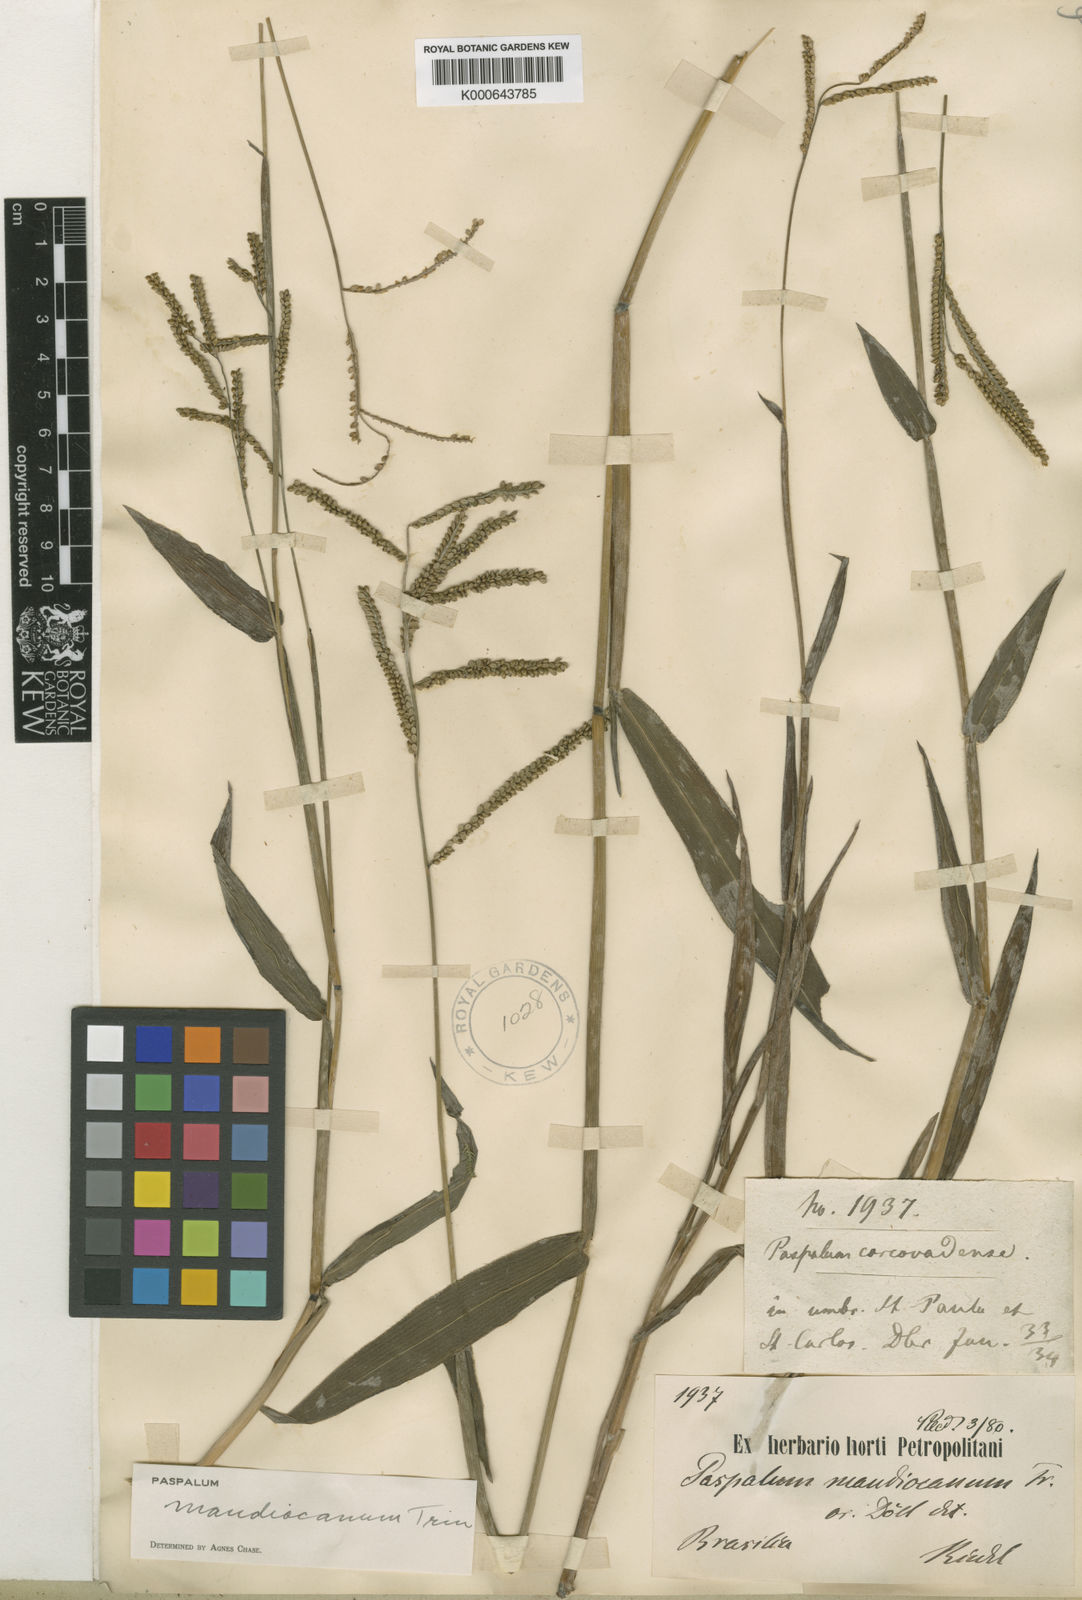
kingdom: Plantae
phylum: Tracheophyta
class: Liliopsida
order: Poales
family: Poaceae
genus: Paspalum
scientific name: Paspalum mandiocanum
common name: Paspalum
